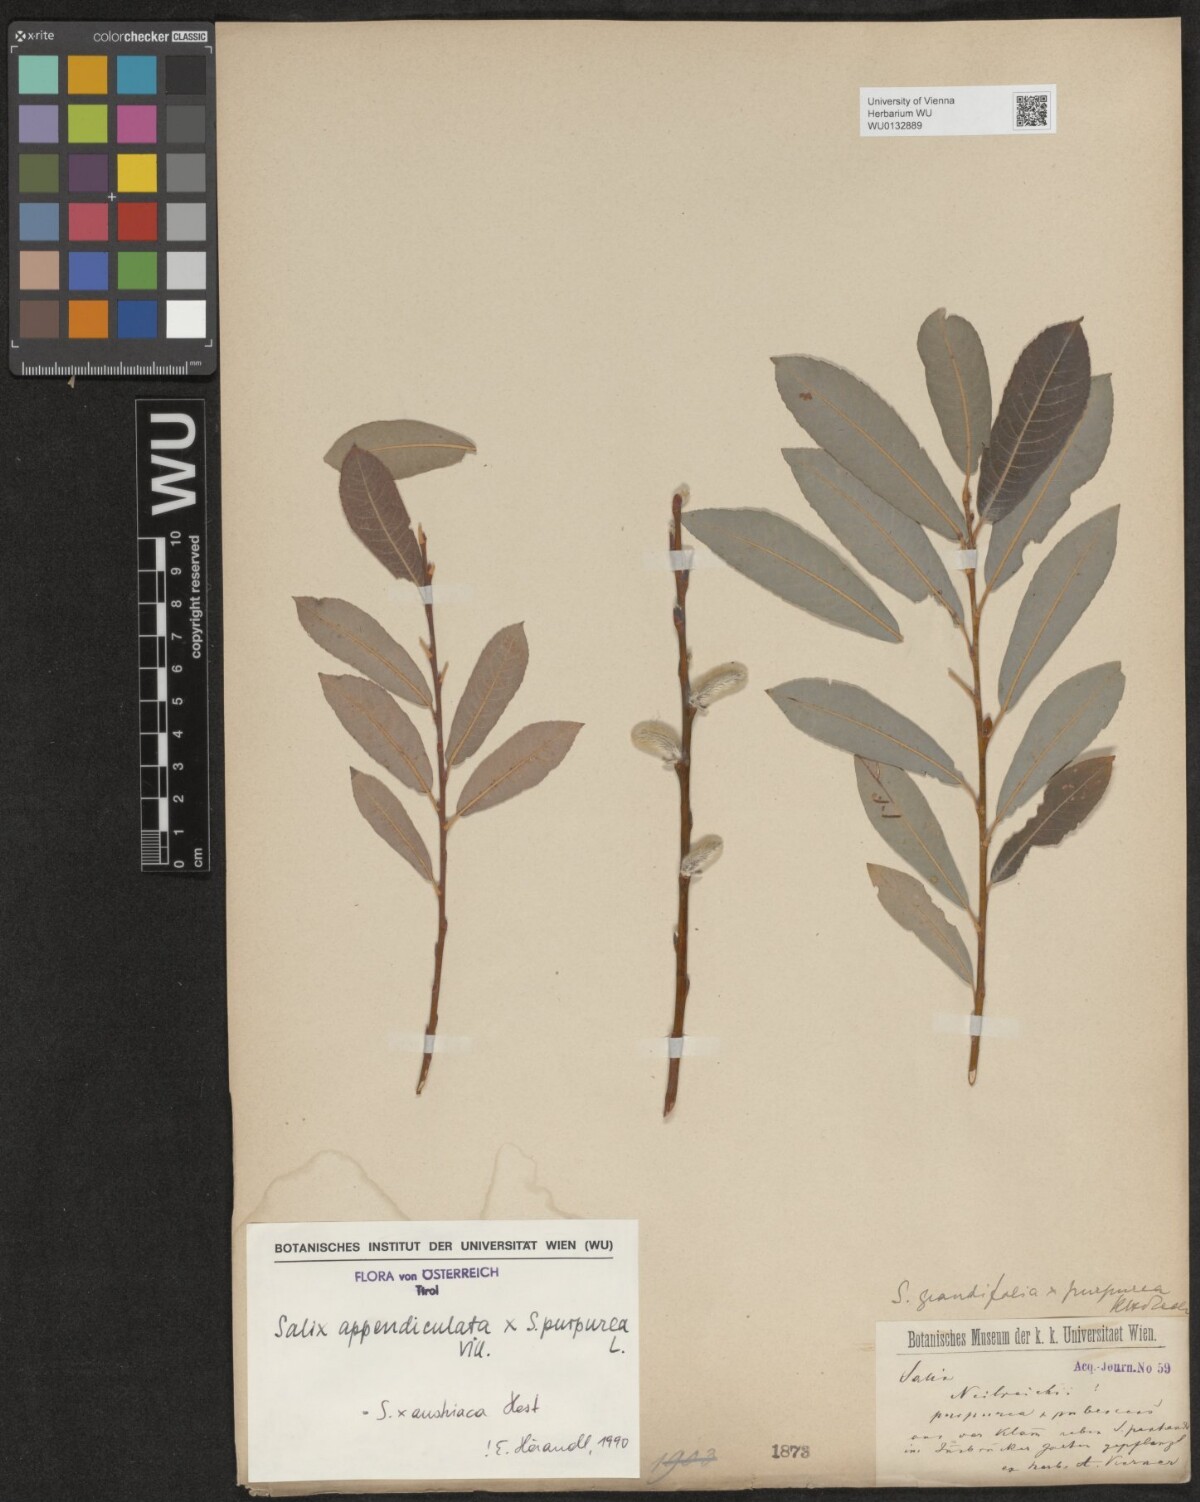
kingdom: Plantae
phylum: Tracheophyta
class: Magnoliopsida
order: Malpighiales
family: Salicaceae
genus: Salix
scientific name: Salix austriaca
